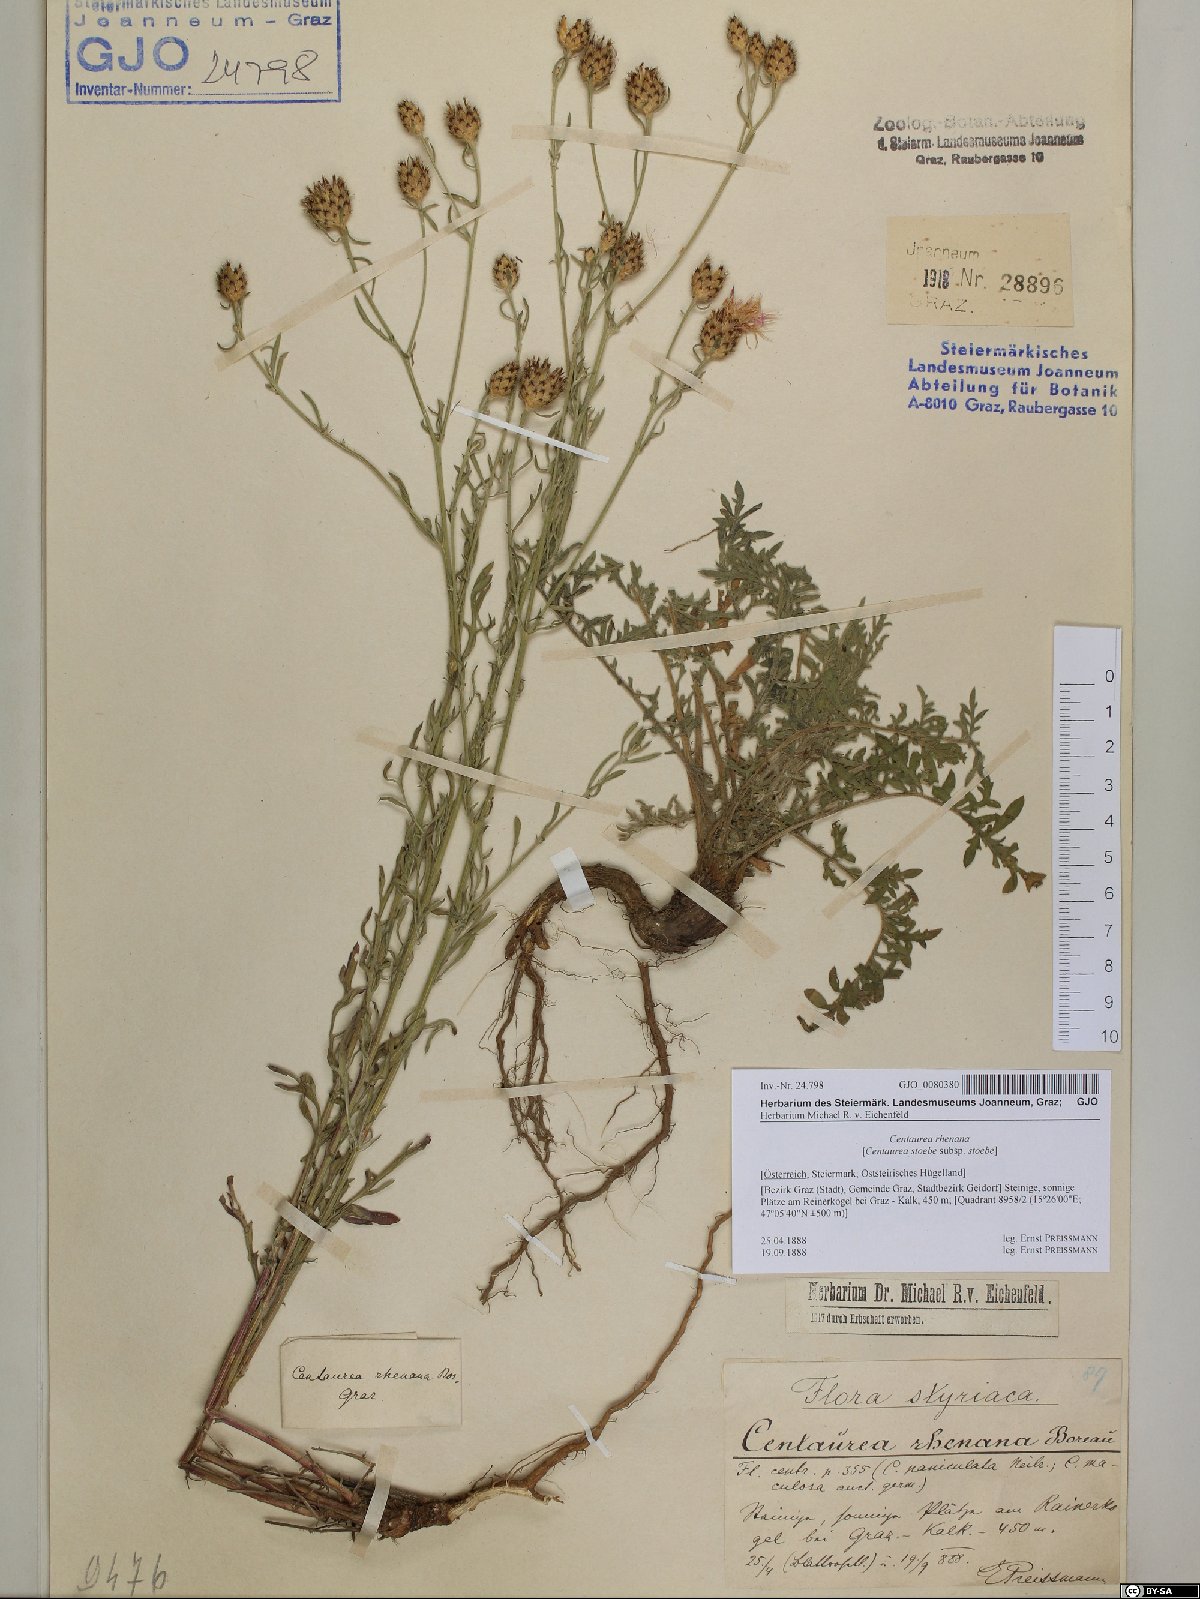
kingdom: Plantae
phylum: Tracheophyta
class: Magnoliopsida
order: Asterales
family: Asteraceae
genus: Centaurea
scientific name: Centaurea stoebe
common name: Spotted knapweed
